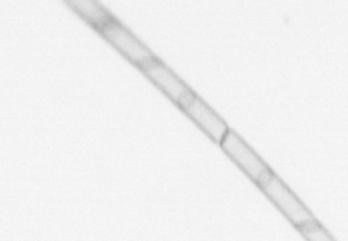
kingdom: Chromista
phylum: Ochrophyta
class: Bacillariophyceae
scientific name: Bacillariophyceae
